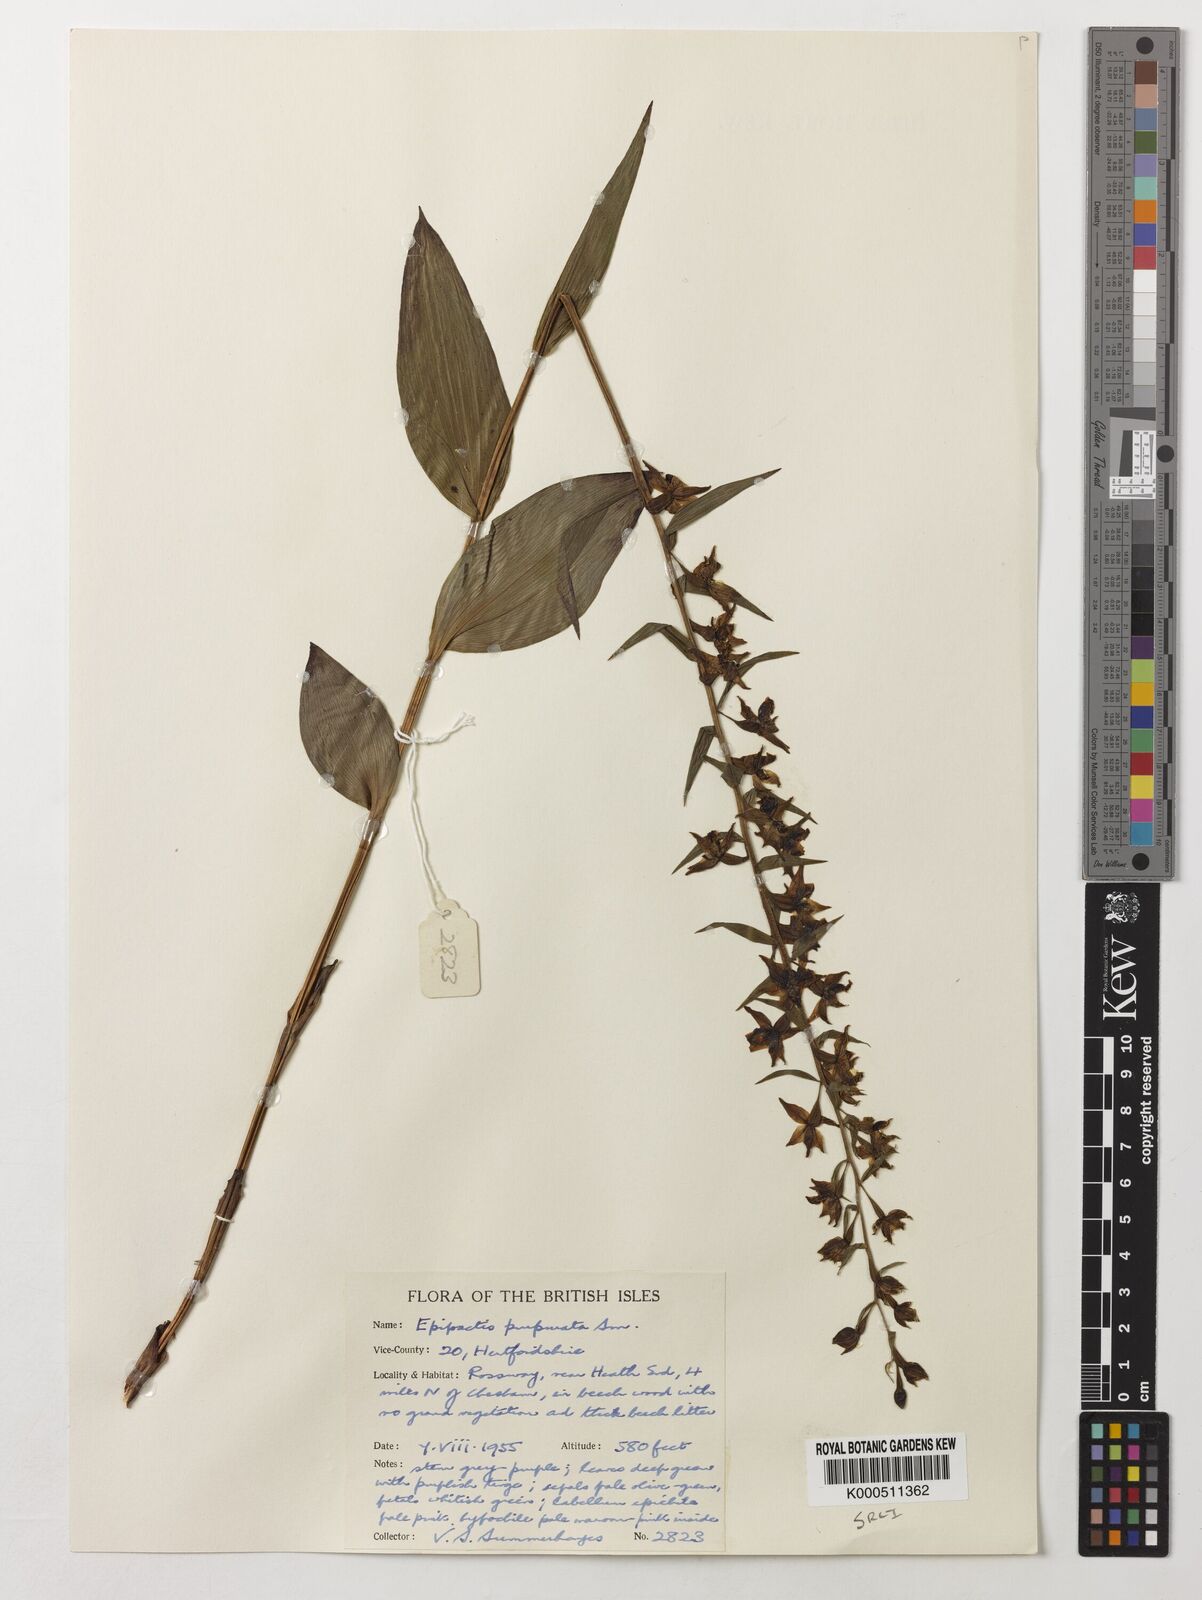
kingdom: Plantae
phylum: Tracheophyta
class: Liliopsida
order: Asparagales
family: Orchidaceae
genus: Epipactis
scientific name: Epipactis purpurata
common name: Violet helleborine
